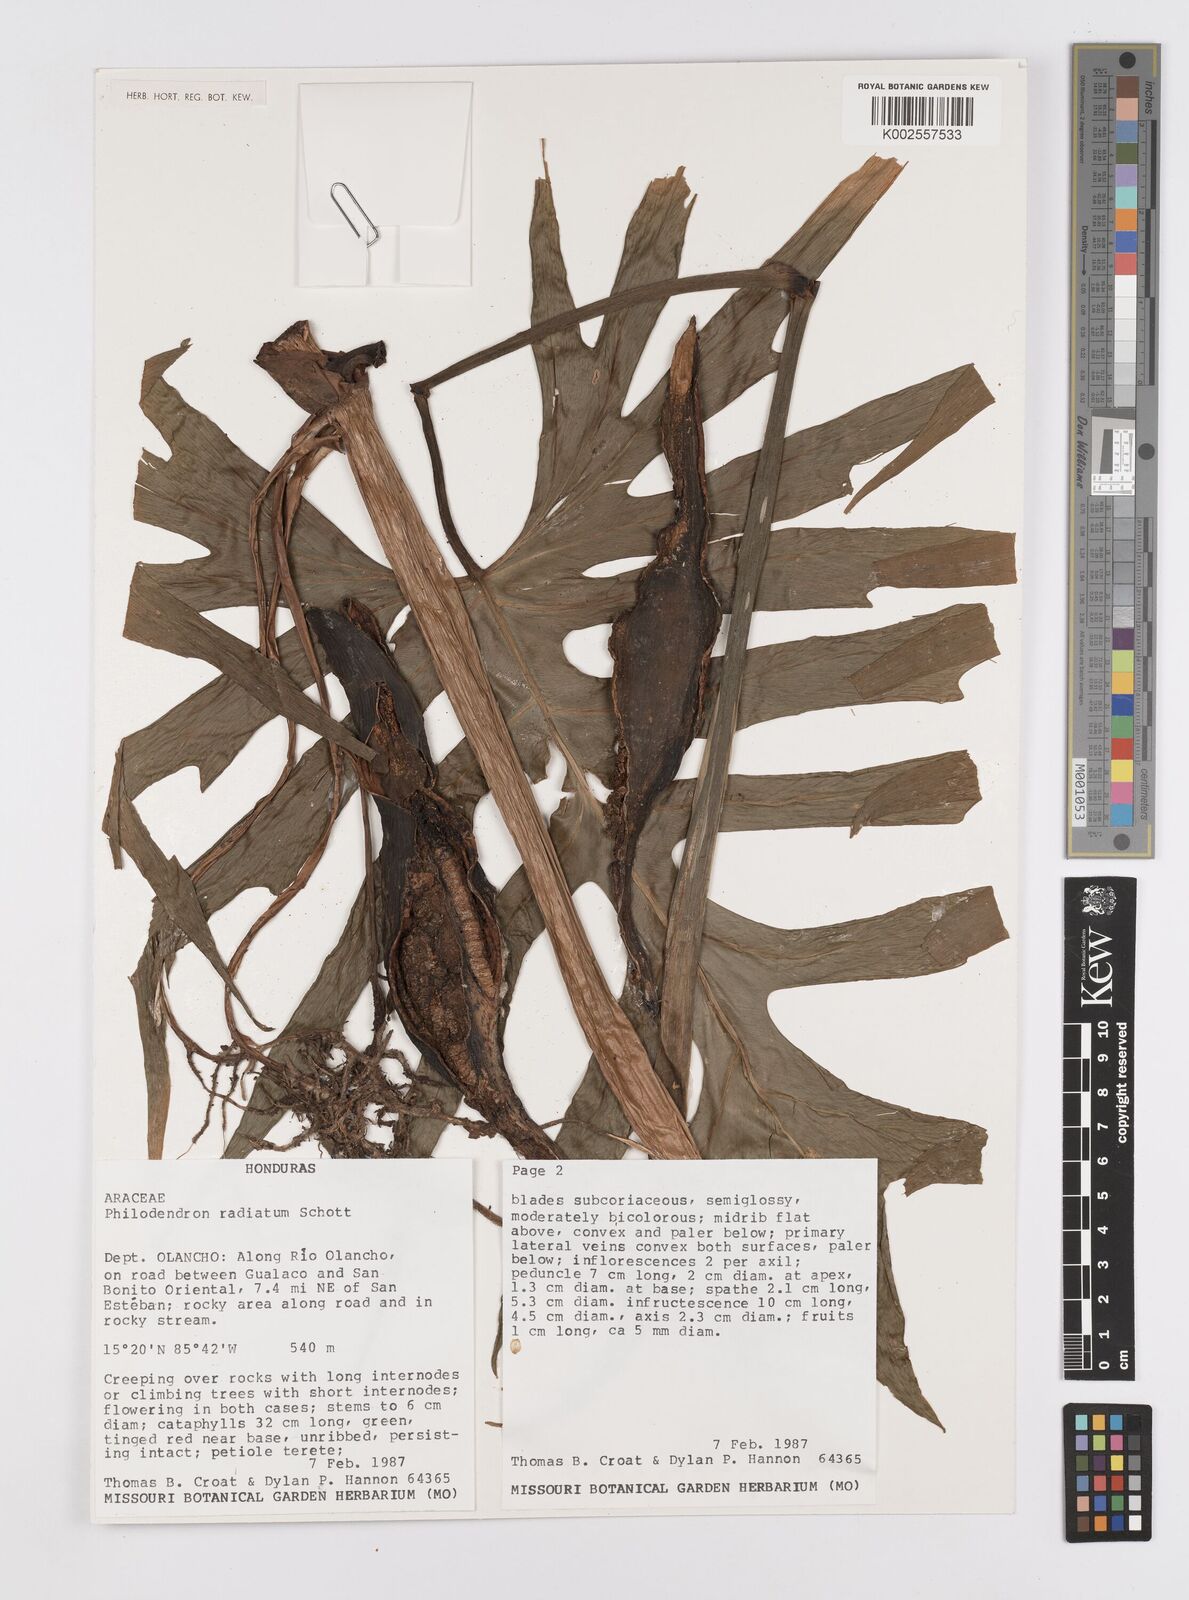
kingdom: Plantae
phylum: Tracheophyta
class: Liliopsida
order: Alismatales
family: Araceae
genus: Philodendron
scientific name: Philodendron radiatum
